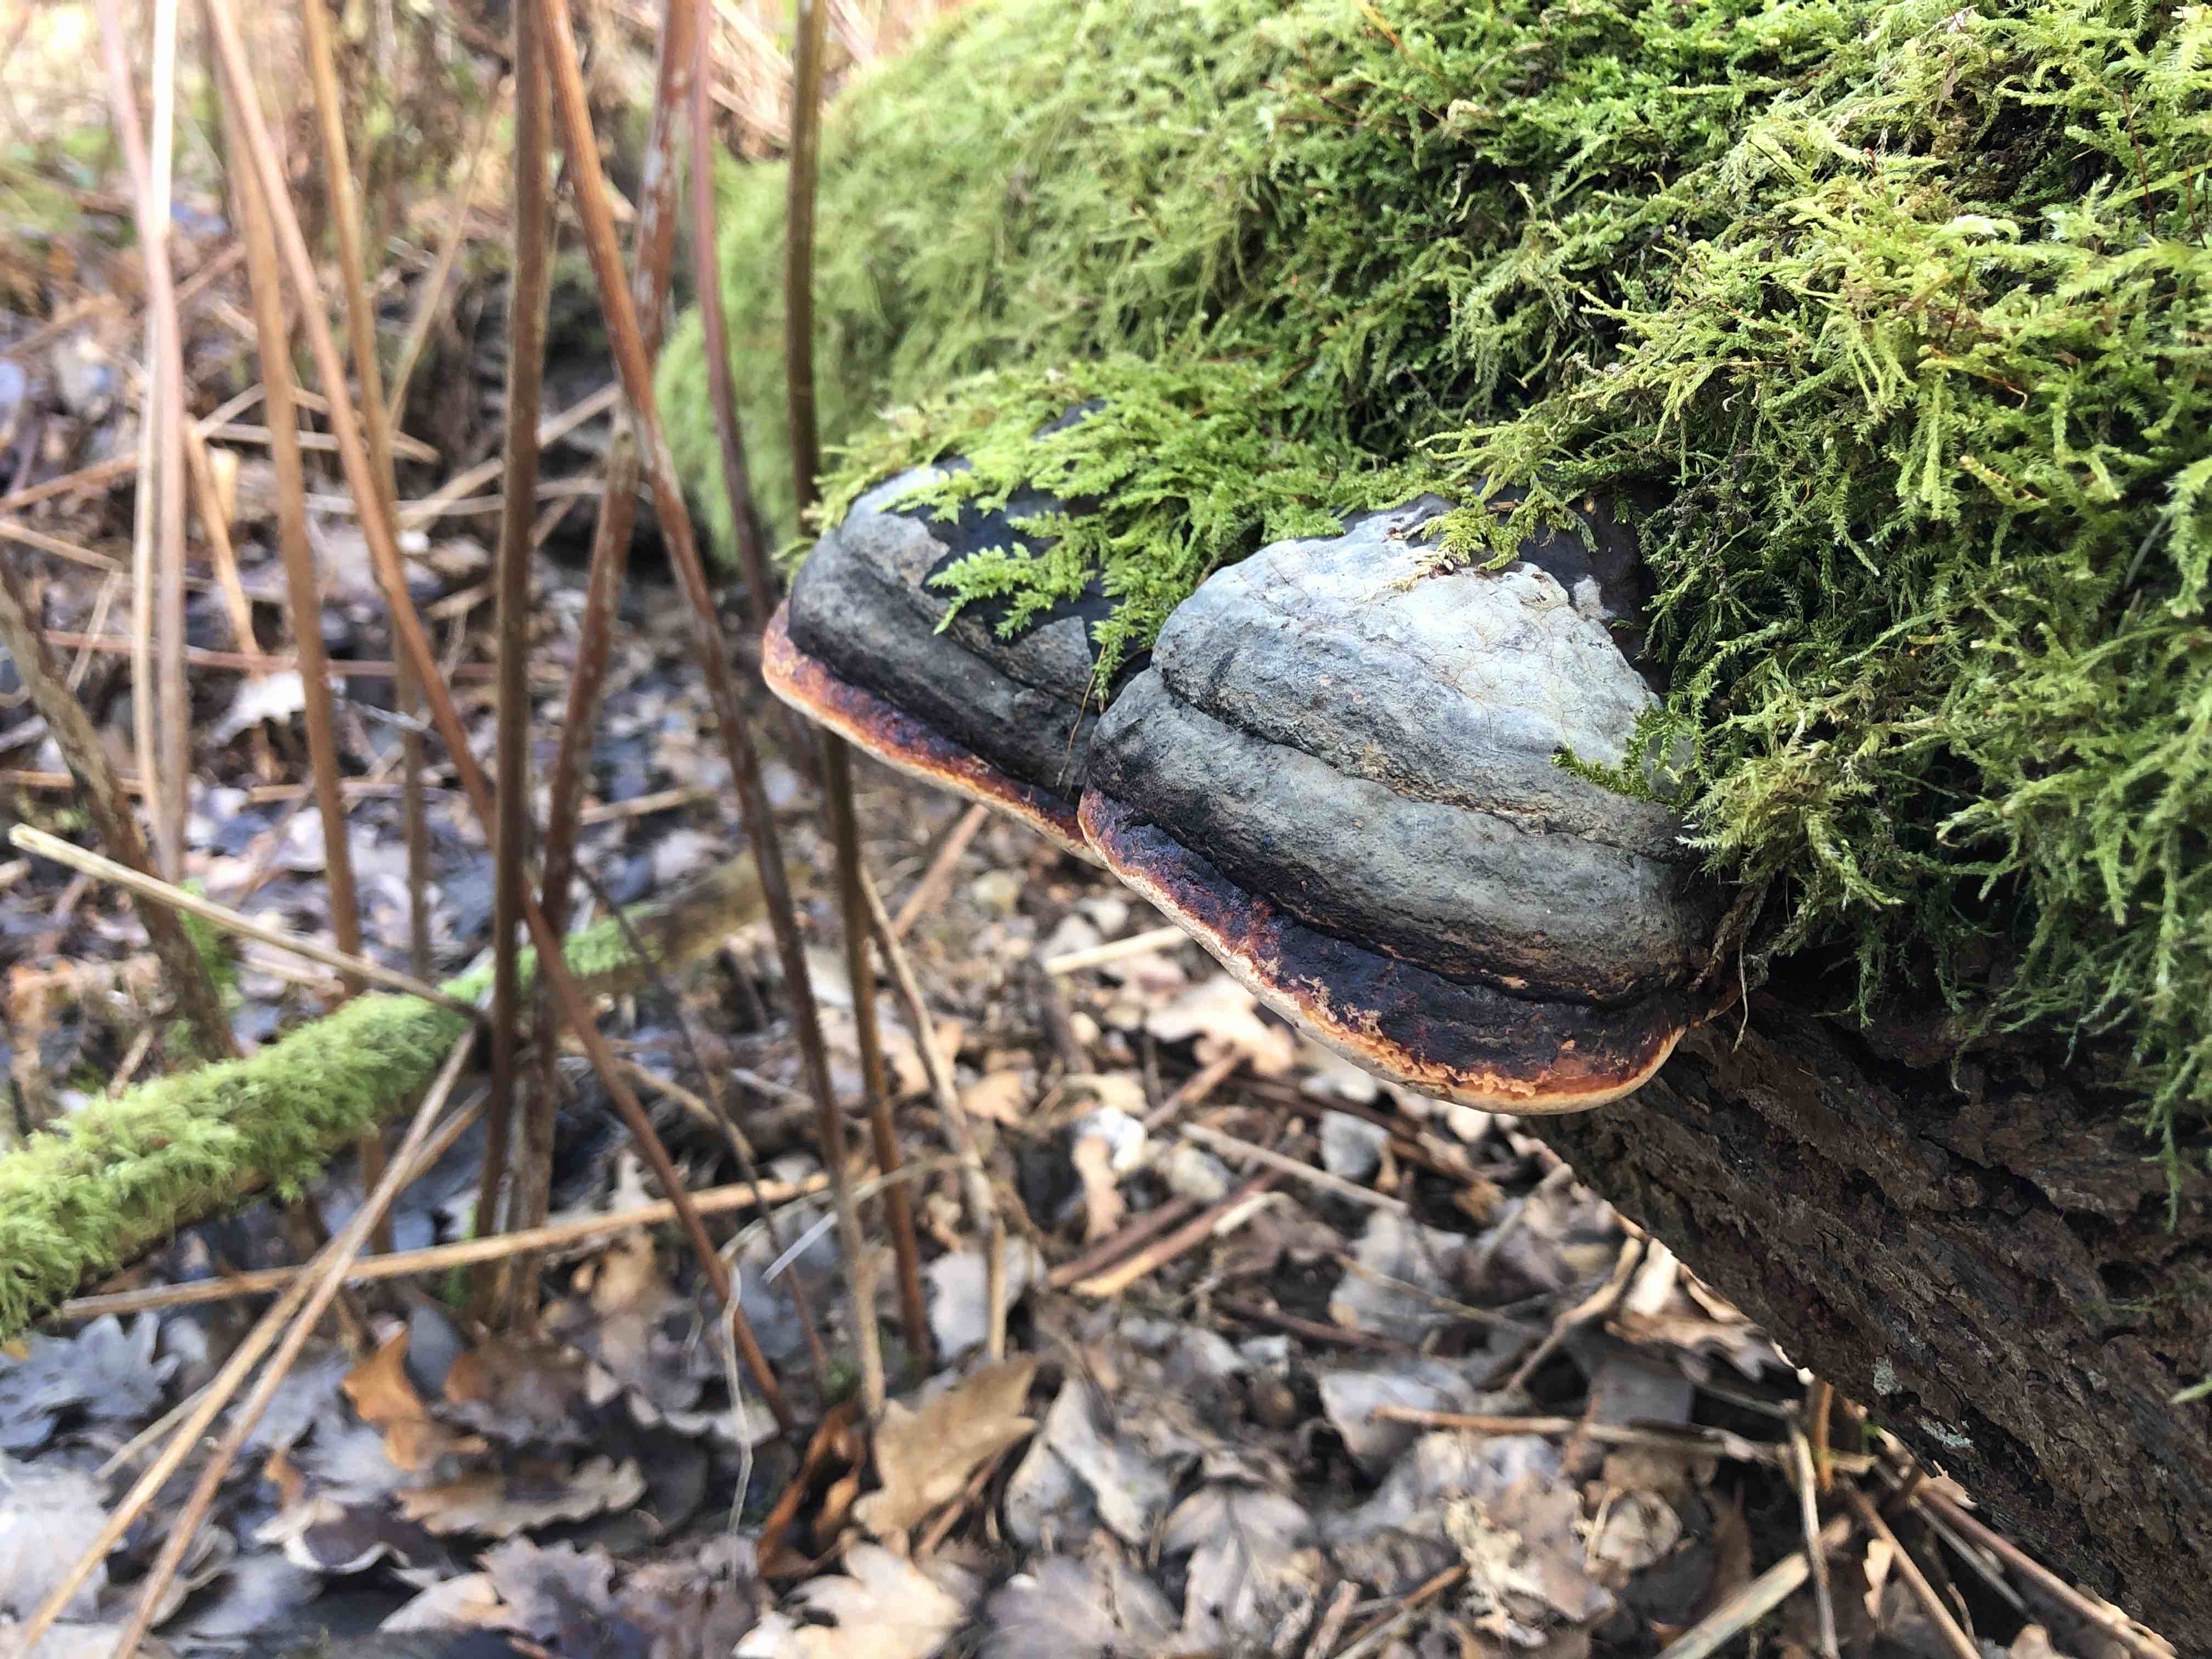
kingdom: Fungi
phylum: Basidiomycota
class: Agaricomycetes
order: Polyporales
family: Fomitopsidaceae
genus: Fomitopsis
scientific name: Fomitopsis pinicola
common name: randbæltet hovporesvamp
